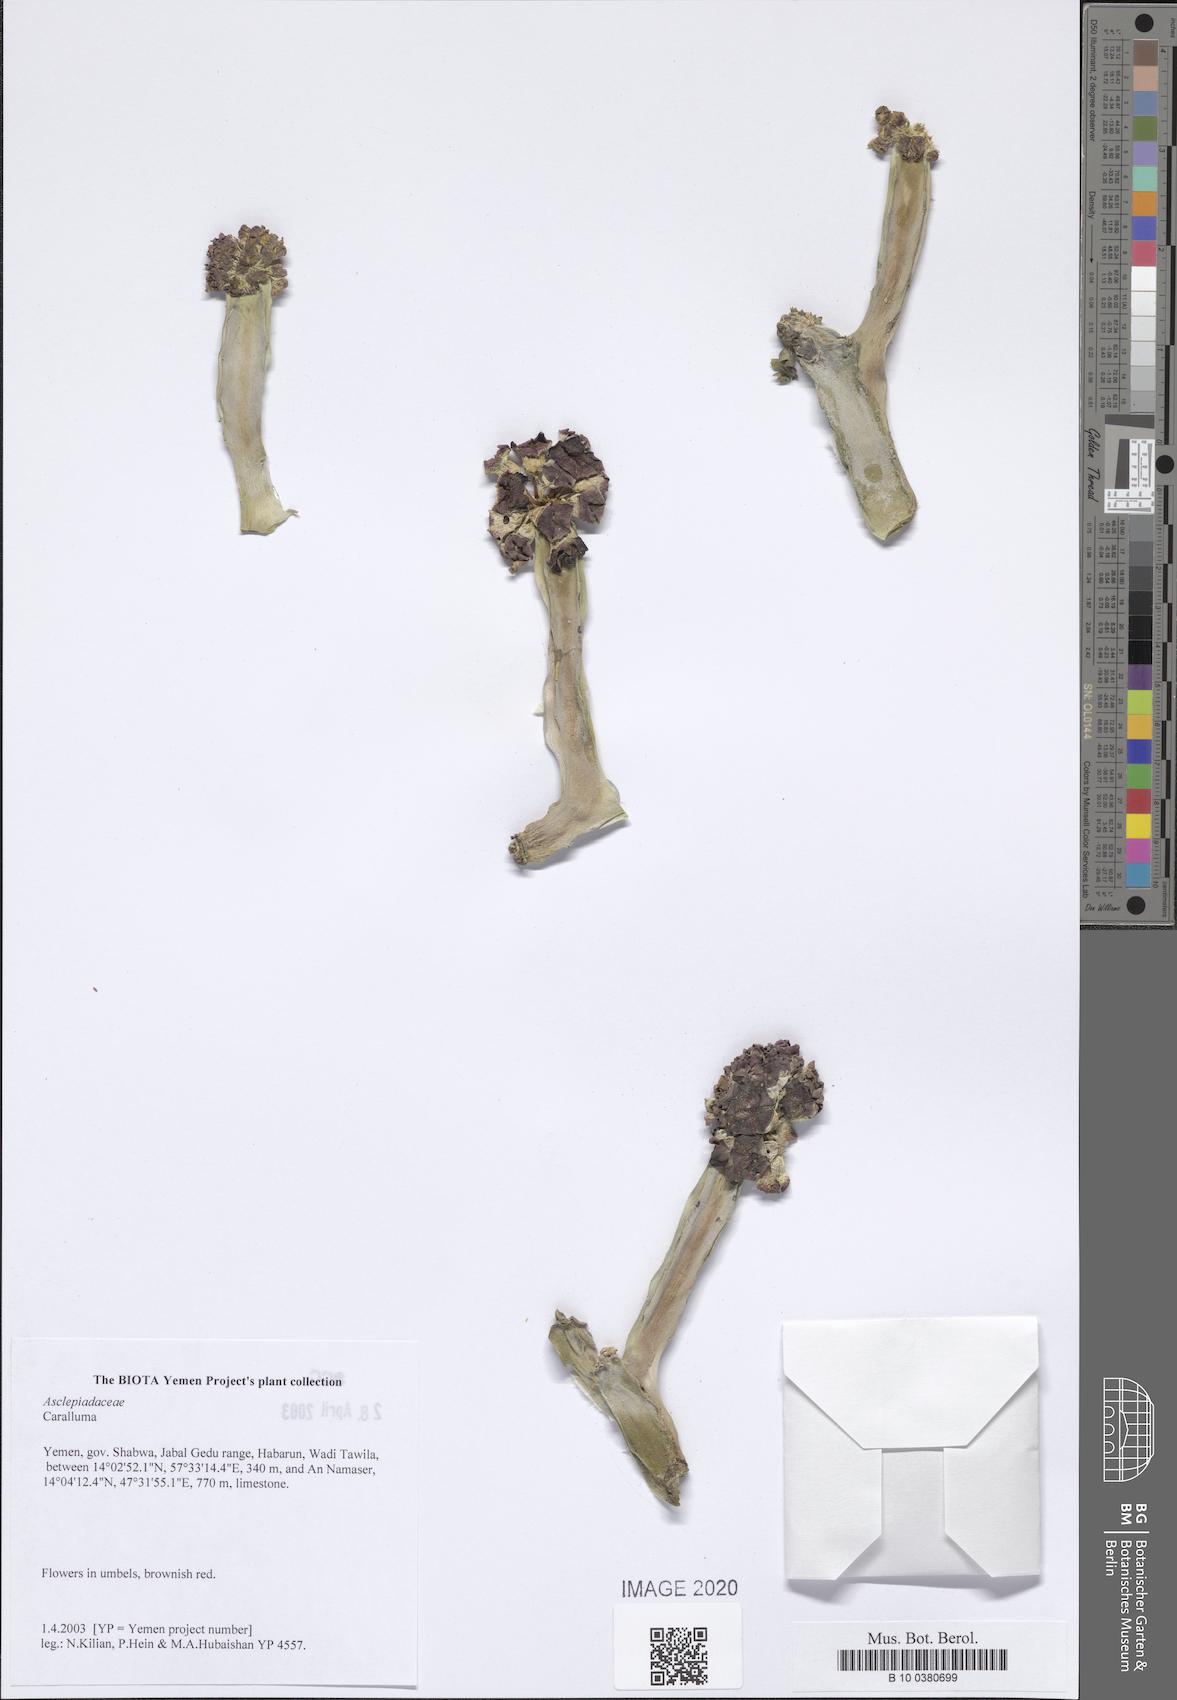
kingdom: Plantae
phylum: Tracheophyta
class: Magnoliopsida
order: Gentianales
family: Apocynaceae
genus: Ceropegia
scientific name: Ceropegia adenensis
